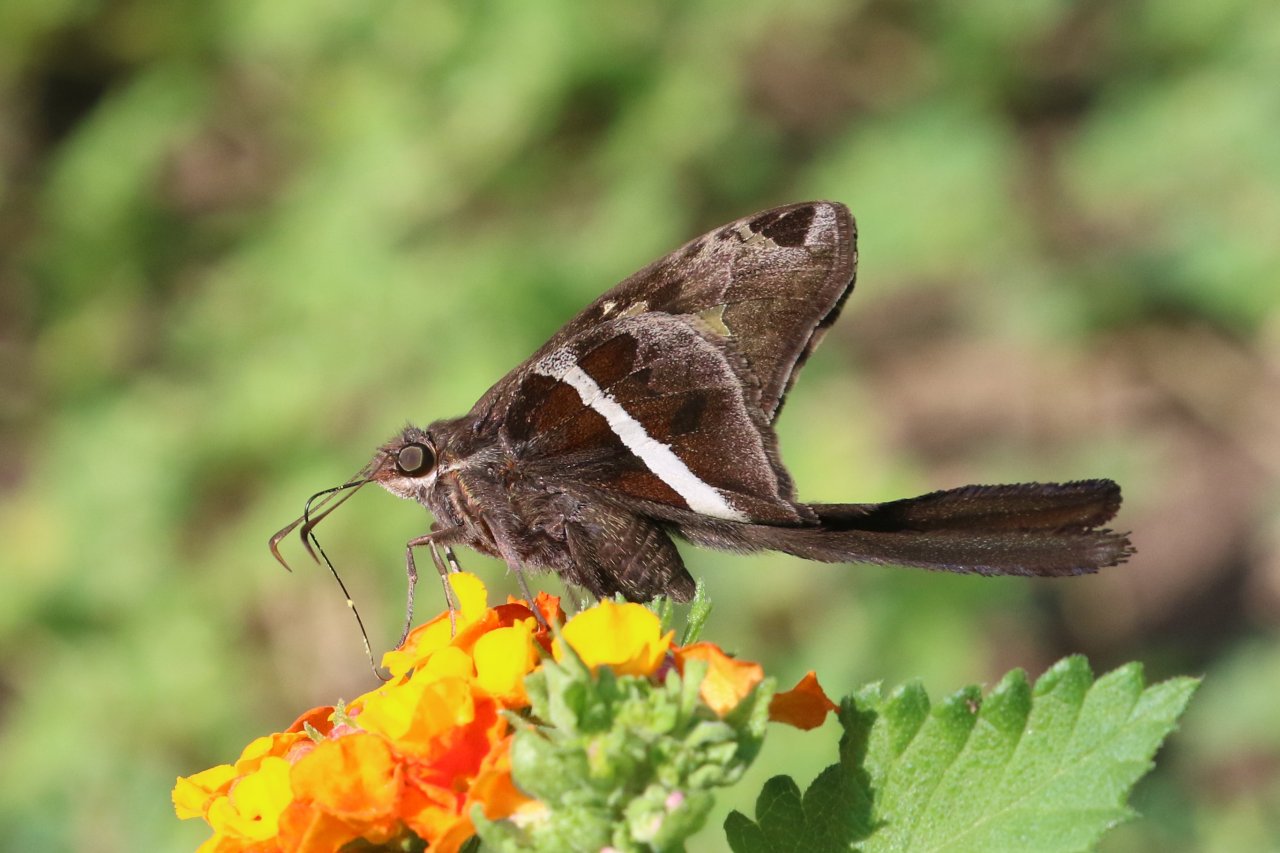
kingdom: Animalia
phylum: Arthropoda
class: Insecta
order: Lepidoptera
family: Hesperiidae
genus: Chioides
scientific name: Chioides catillus
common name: White-striped Longtail
